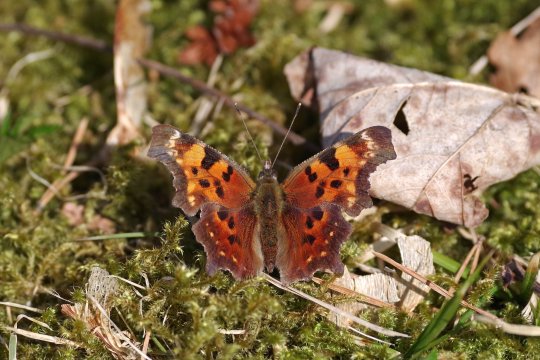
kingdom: Animalia
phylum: Arthropoda
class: Insecta
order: Lepidoptera
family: Nymphalidae
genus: Polygonia
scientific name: Polygonia faunus
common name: Green Comma
